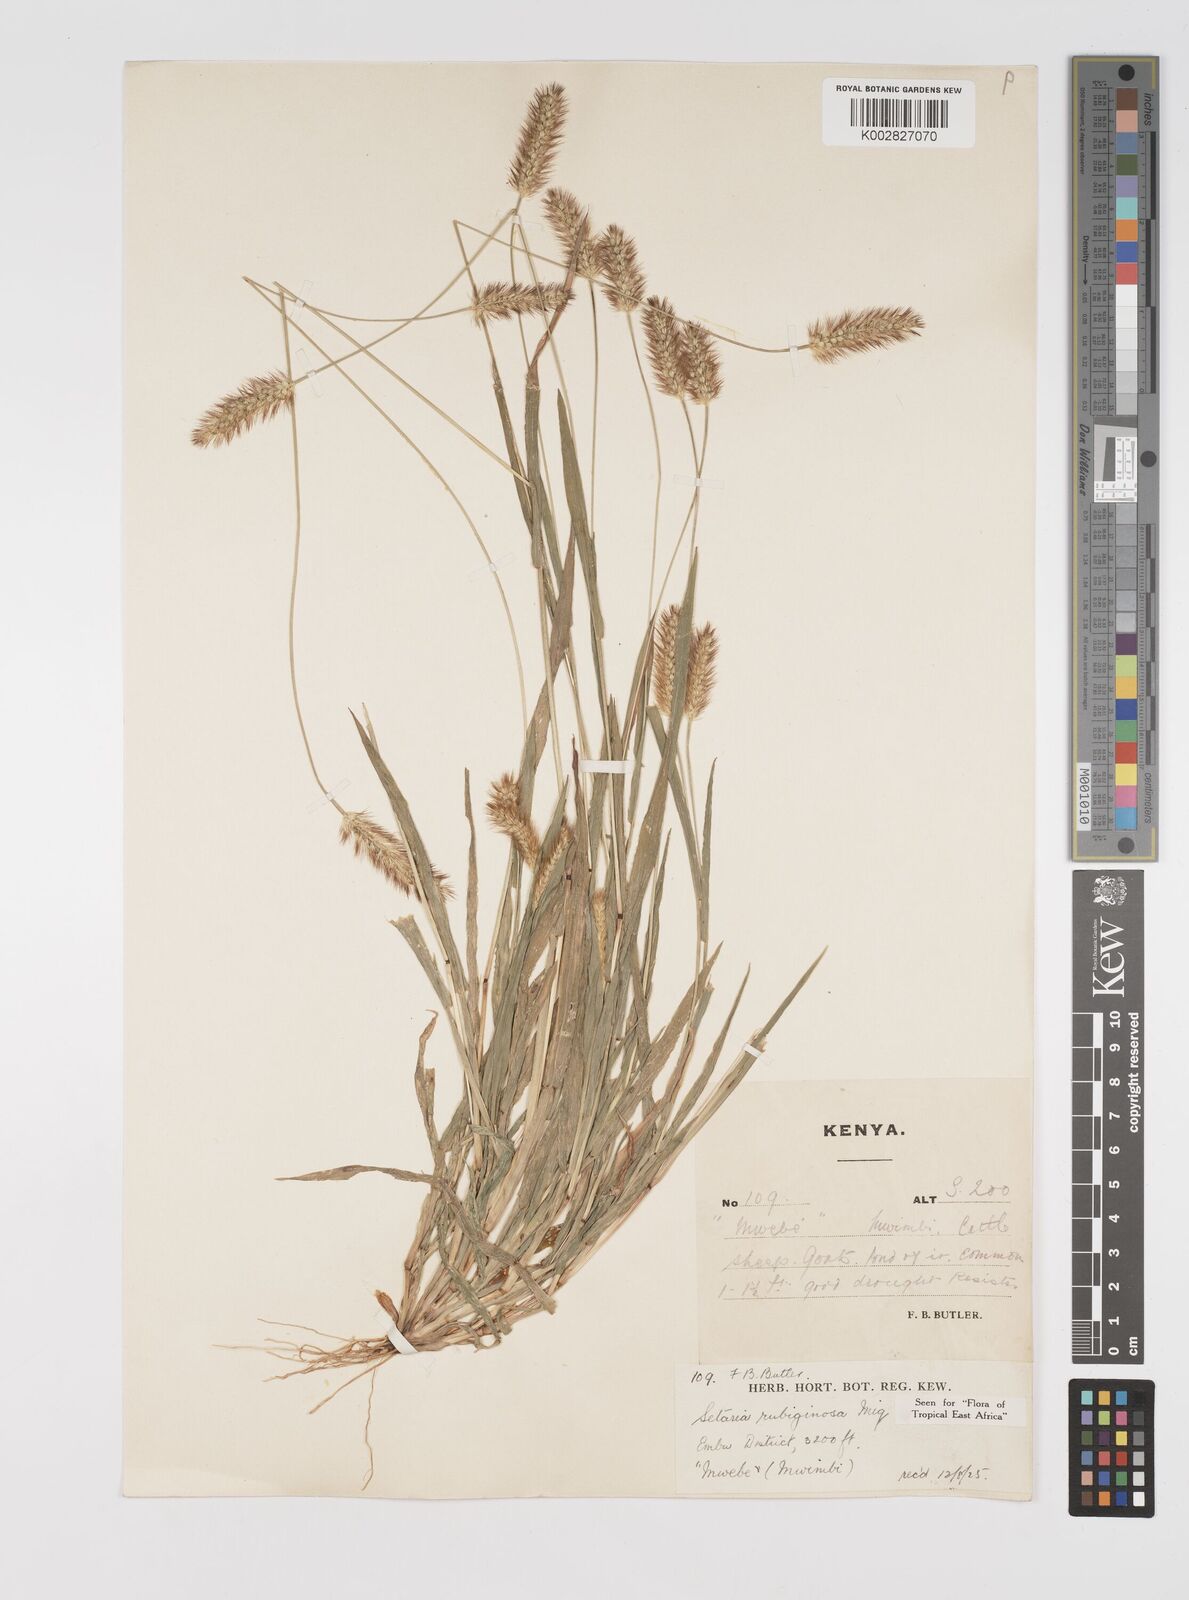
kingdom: Plantae
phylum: Tracheophyta
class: Liliopsida
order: Poales
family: Poaceae
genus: Setaria
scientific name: Setaria pumila
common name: Yellow bristle-grass
